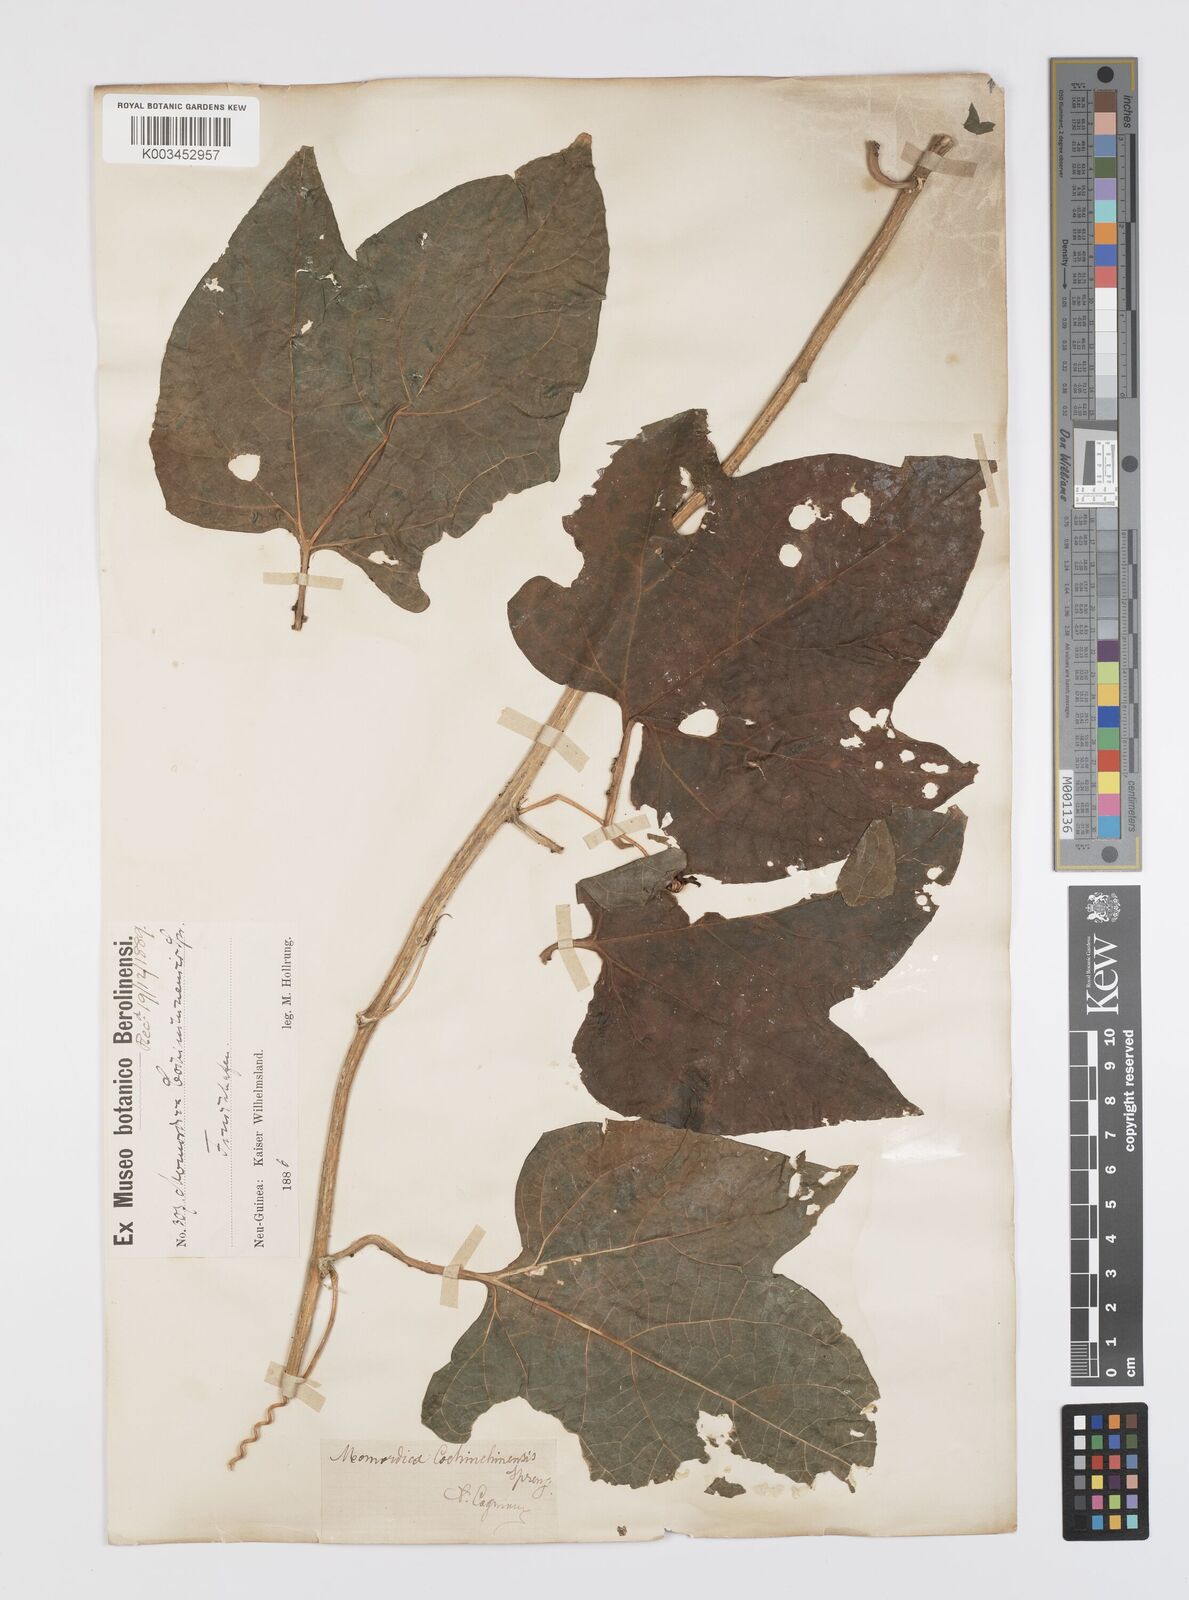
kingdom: Plantae
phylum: Tracheophyta
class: Magnoliopsida
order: Cucurbitales
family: Cucurbitaceae
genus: Momordica
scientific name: Momordica cochinchinensis
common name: Chinese bitter-cucumber
